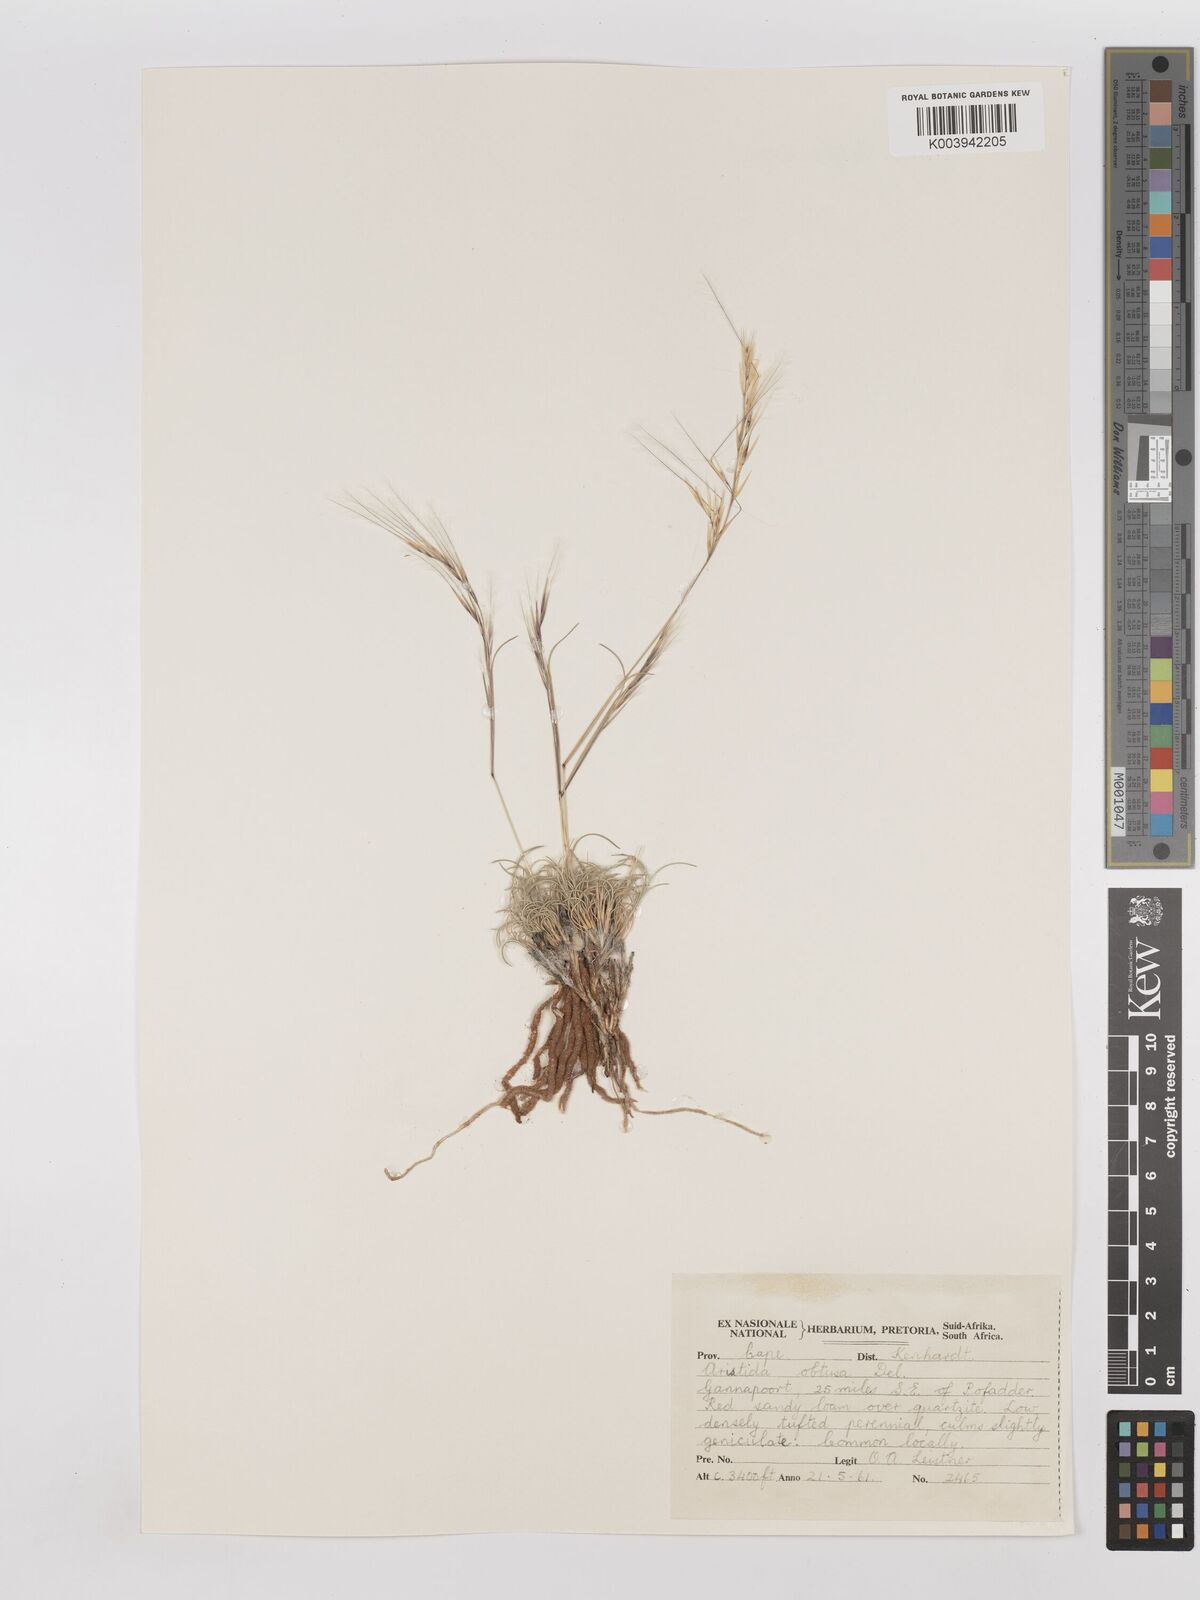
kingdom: Plantae
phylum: Tracheophyta
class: Liliopsida
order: Poales
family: Poaceae
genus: Stipagrostis
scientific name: Stipagrostis obtusa
